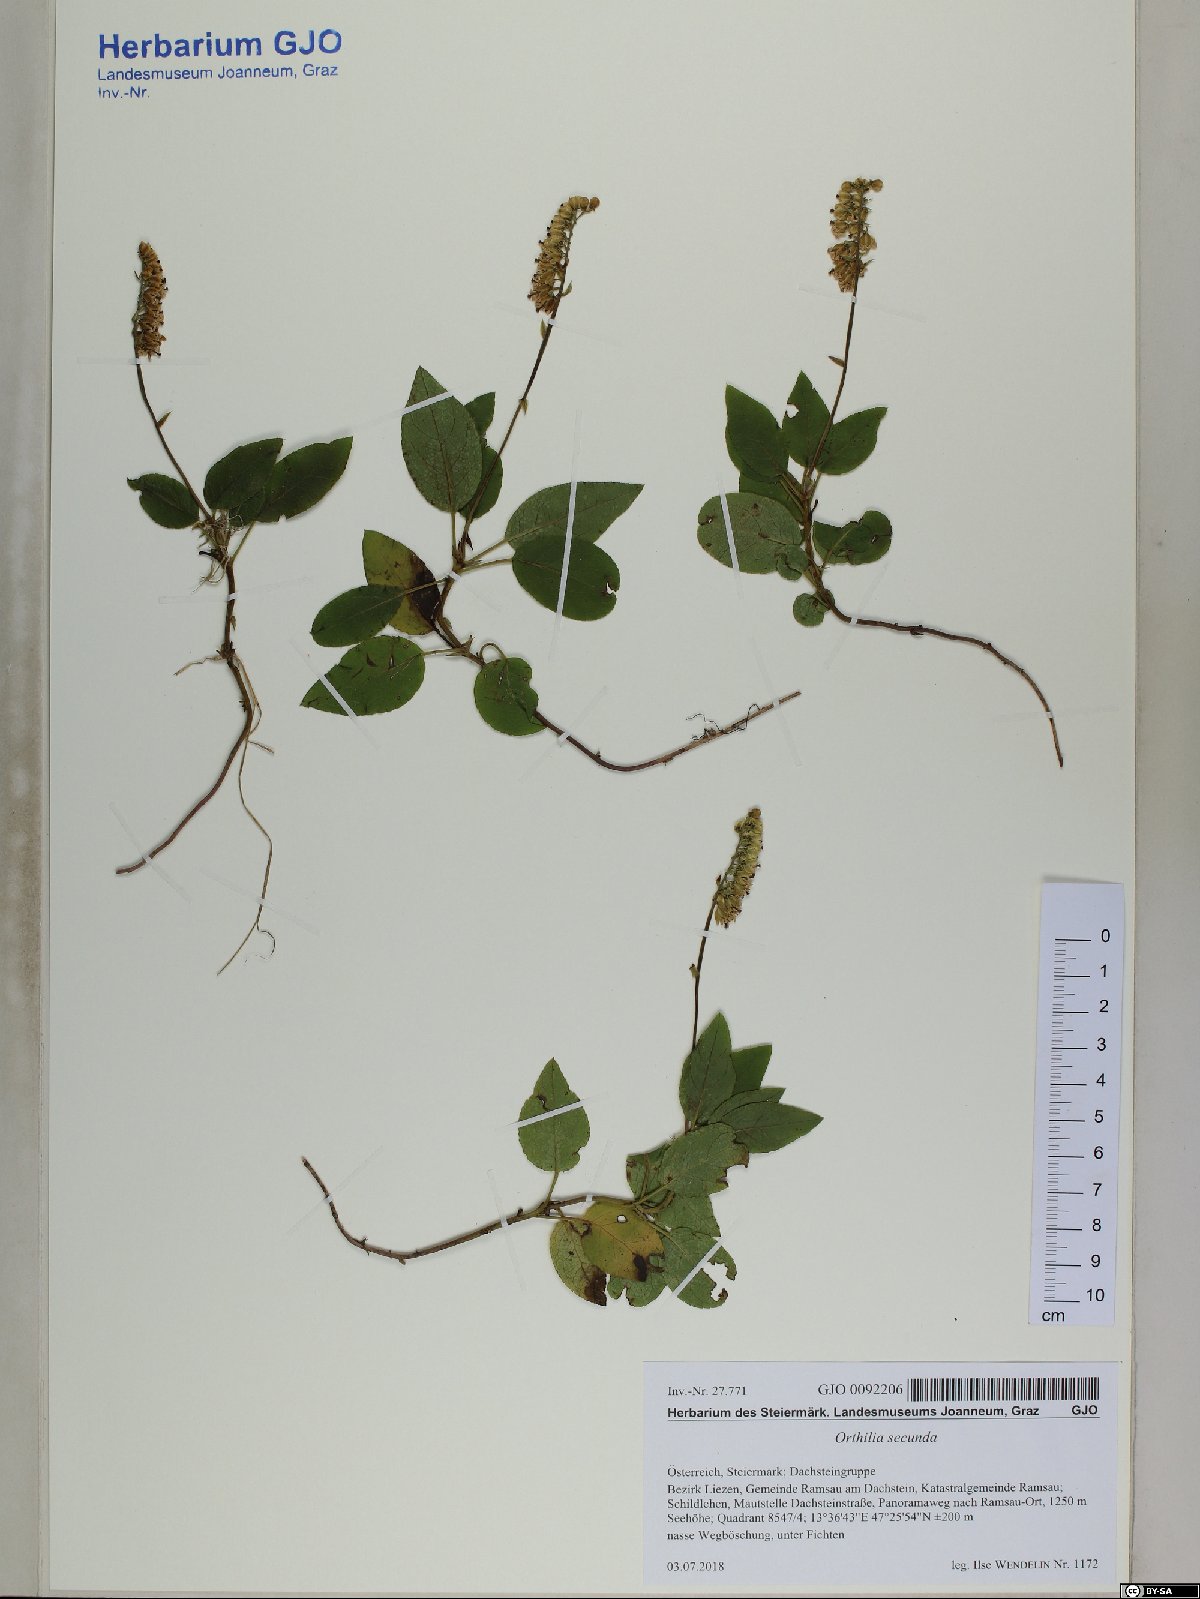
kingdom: Plantae
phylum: Tracheophyta
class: Magnoliopsida
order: Ericales
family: Ericaceae
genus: Orthilia
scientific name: Orthilia secunda
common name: One-sided orthilia
